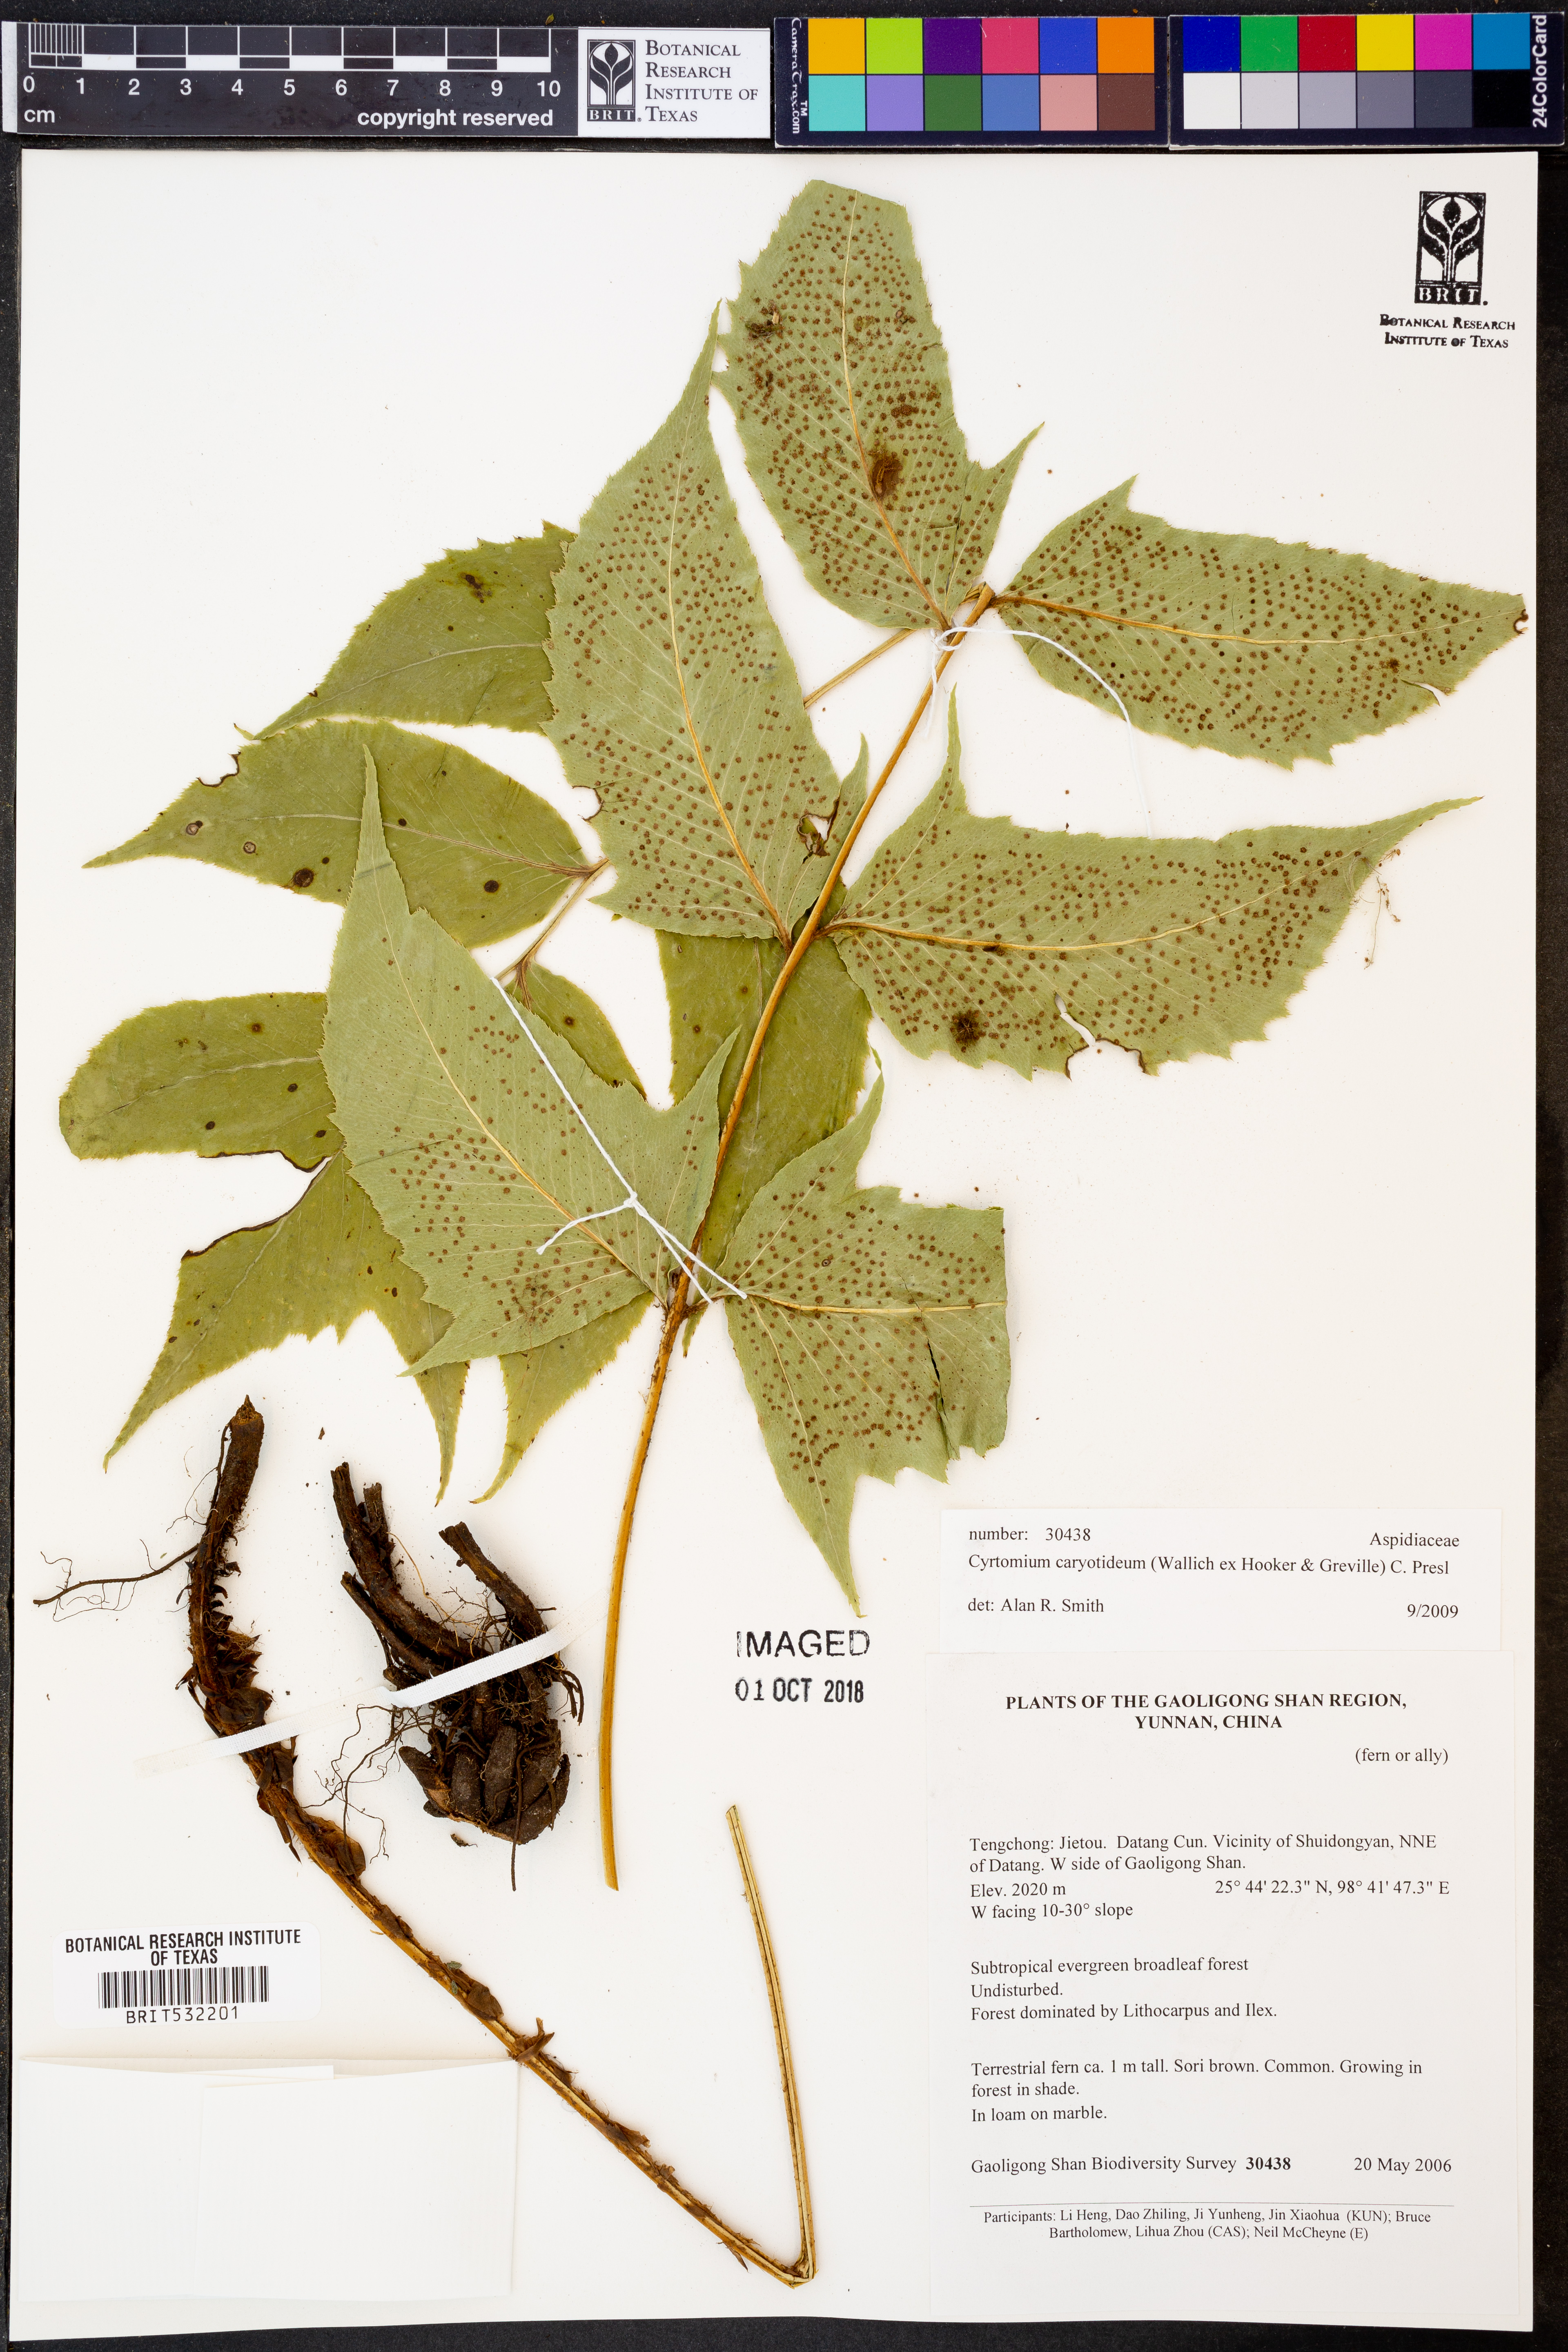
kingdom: Plantae
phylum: Tracheophyta
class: Polypodiopsida
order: Polypodiales
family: Dryopteridaceae
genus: Cyrtomium
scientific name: Cyrtomium caryotideum
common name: Asiatic holly fern
